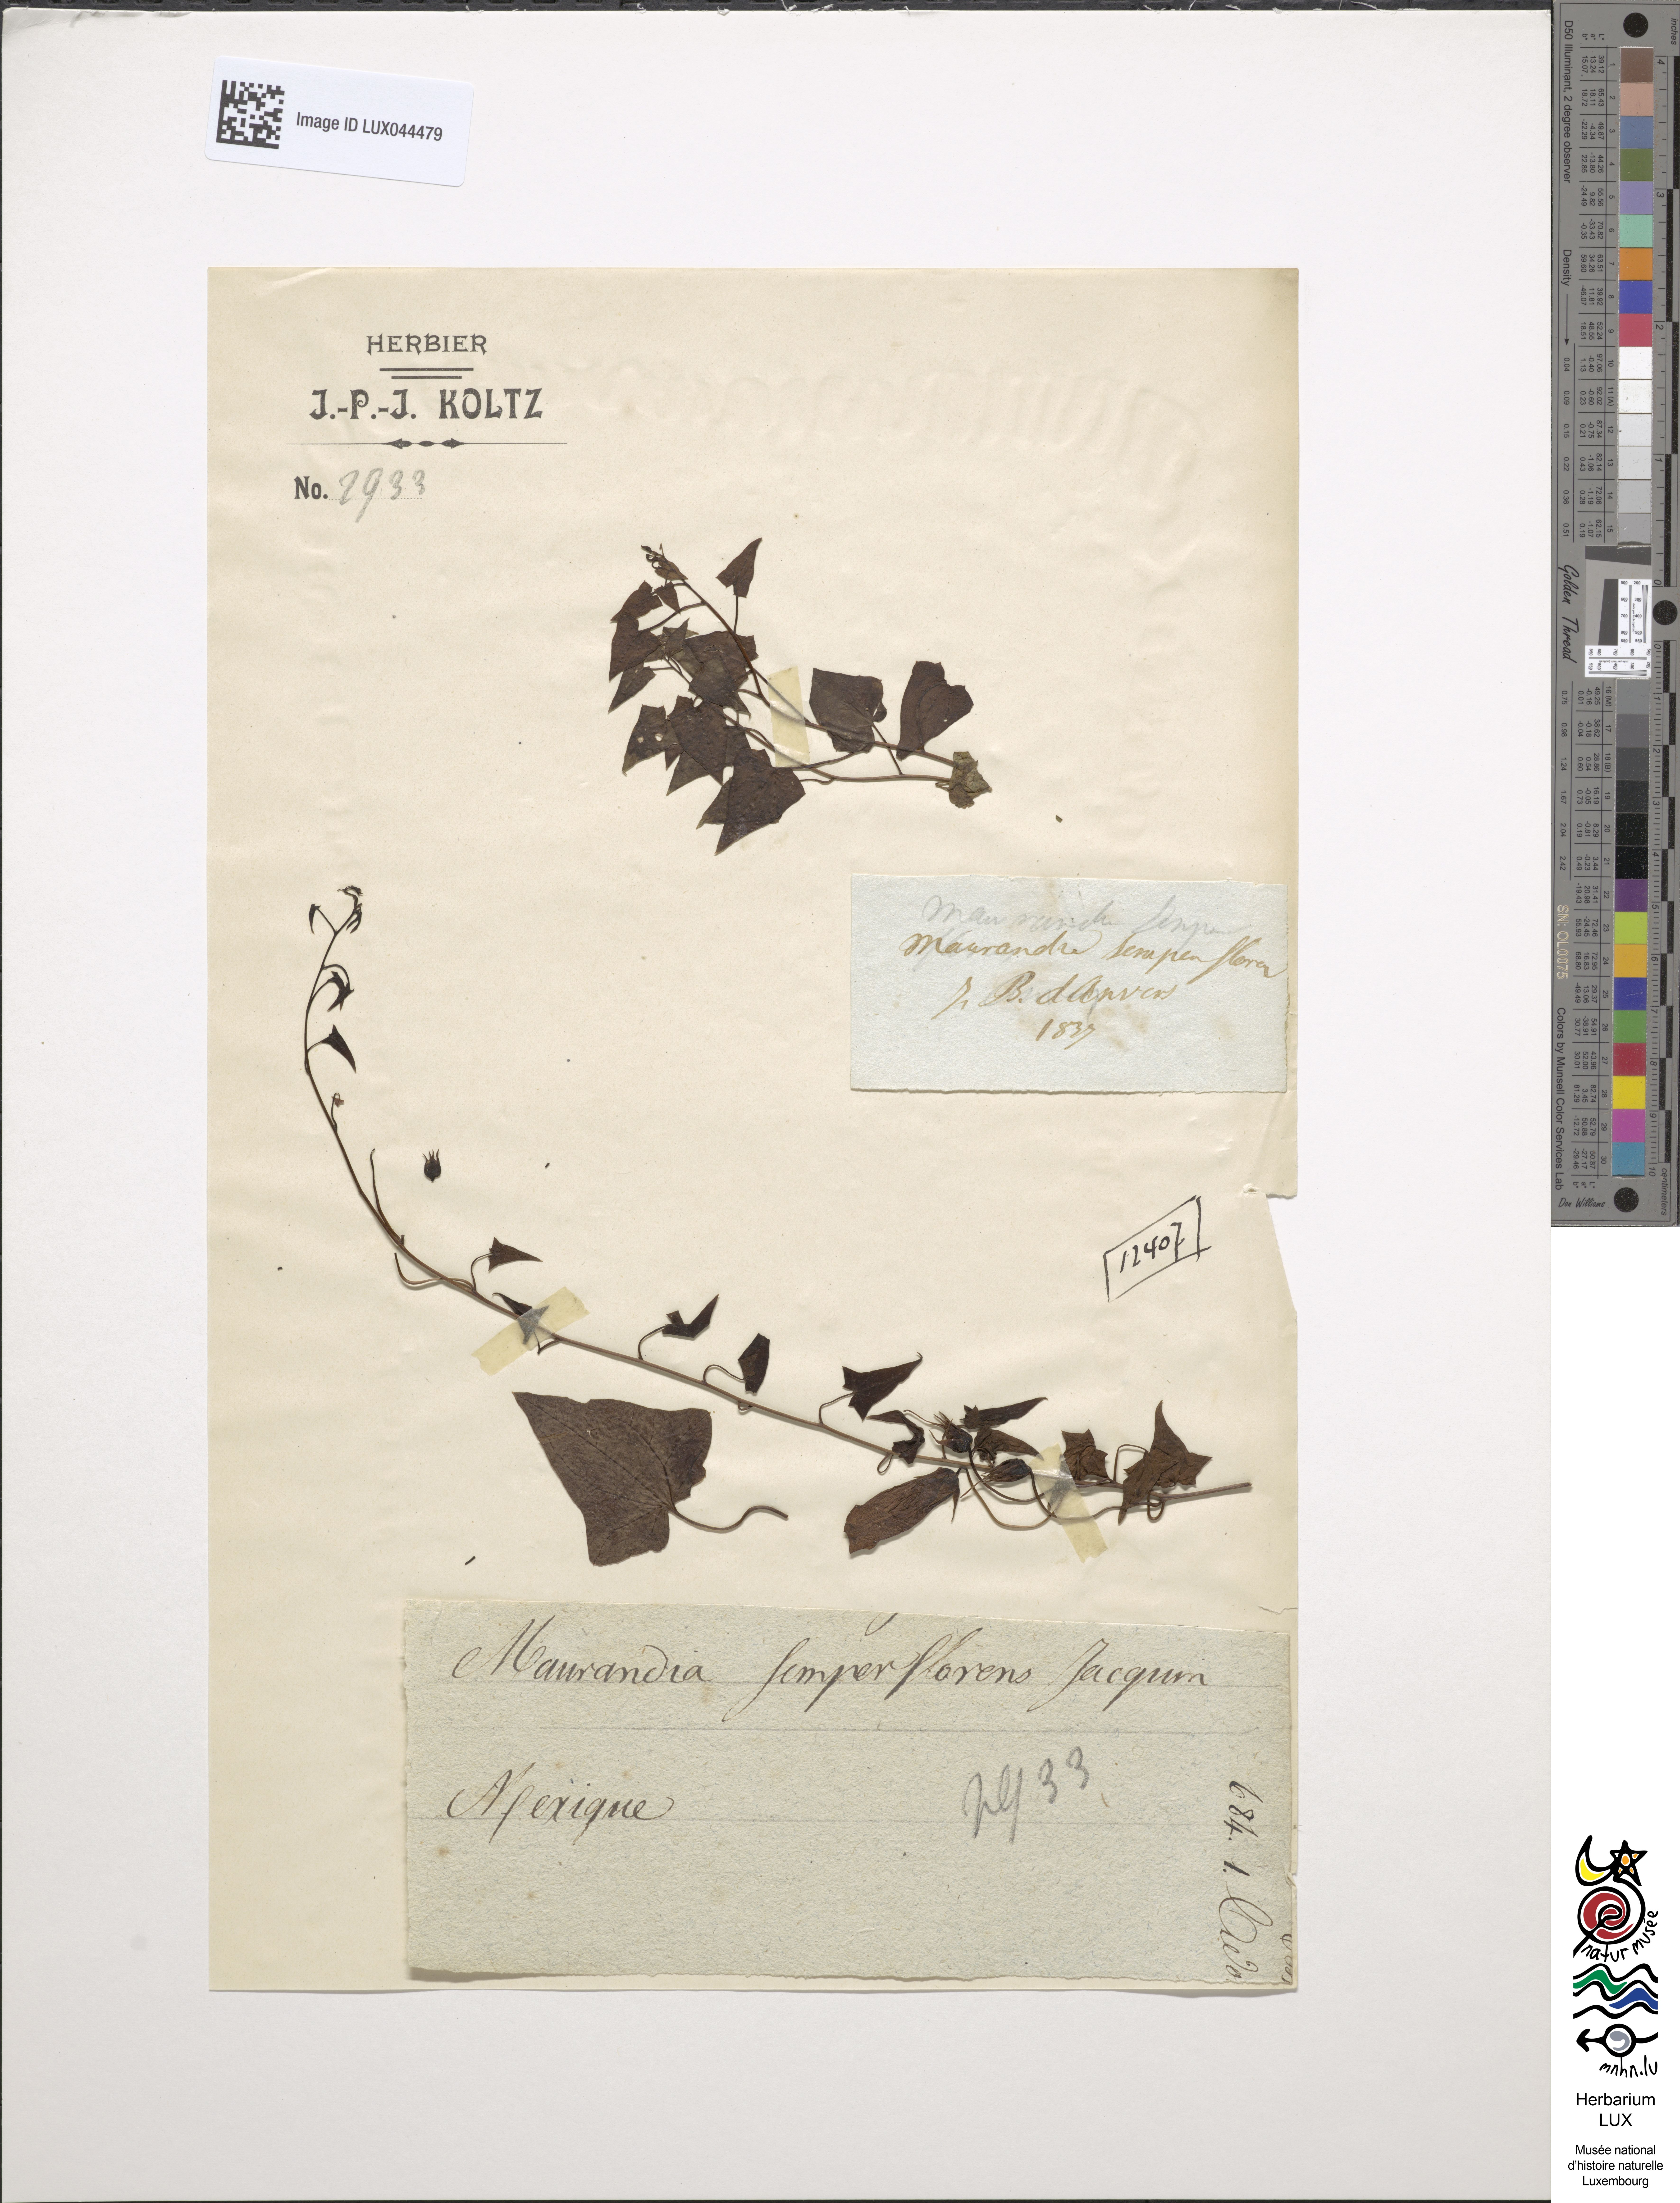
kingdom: Plantae
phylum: Tracheophyta
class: Magnoliopsida
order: Lamiales
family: Plantaginaceae
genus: Maurandya
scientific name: Maurandya scandens
